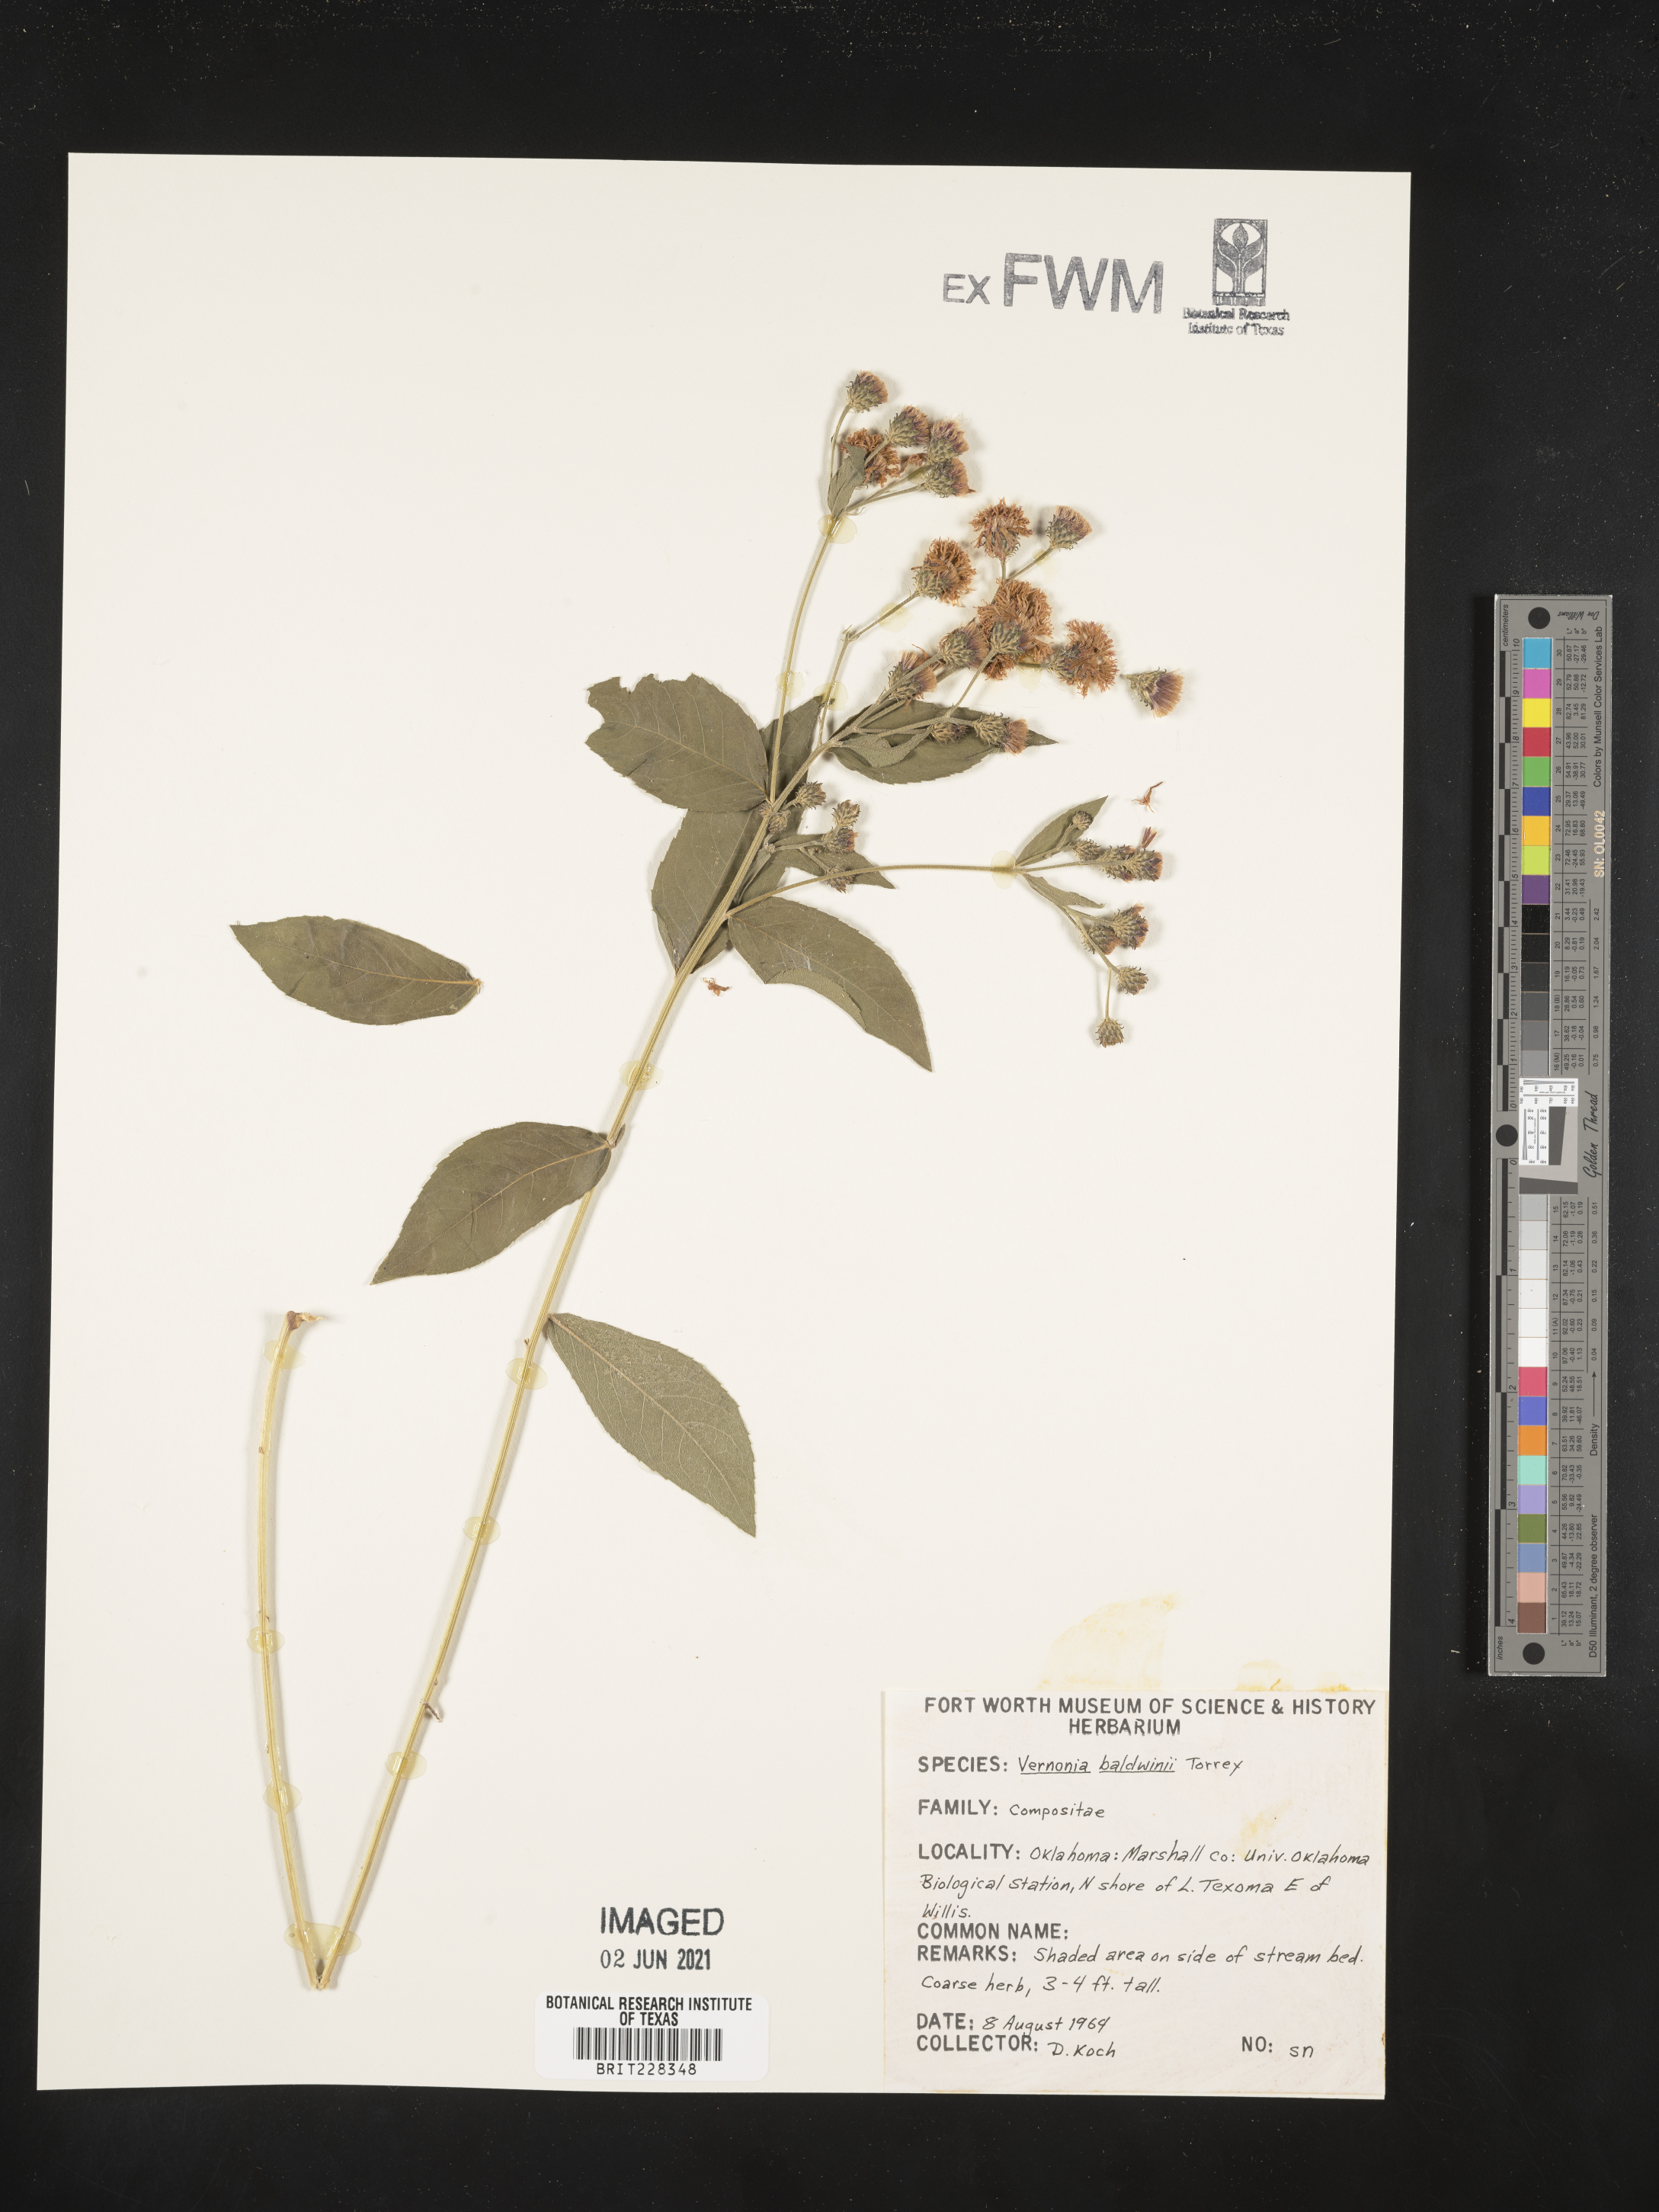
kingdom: Plantae
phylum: Tracheophyta
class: Magnoliopsida
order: Asterales
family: Asteraceae
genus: Vernonia
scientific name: Vernonia baldwinii
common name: Western ironweed
